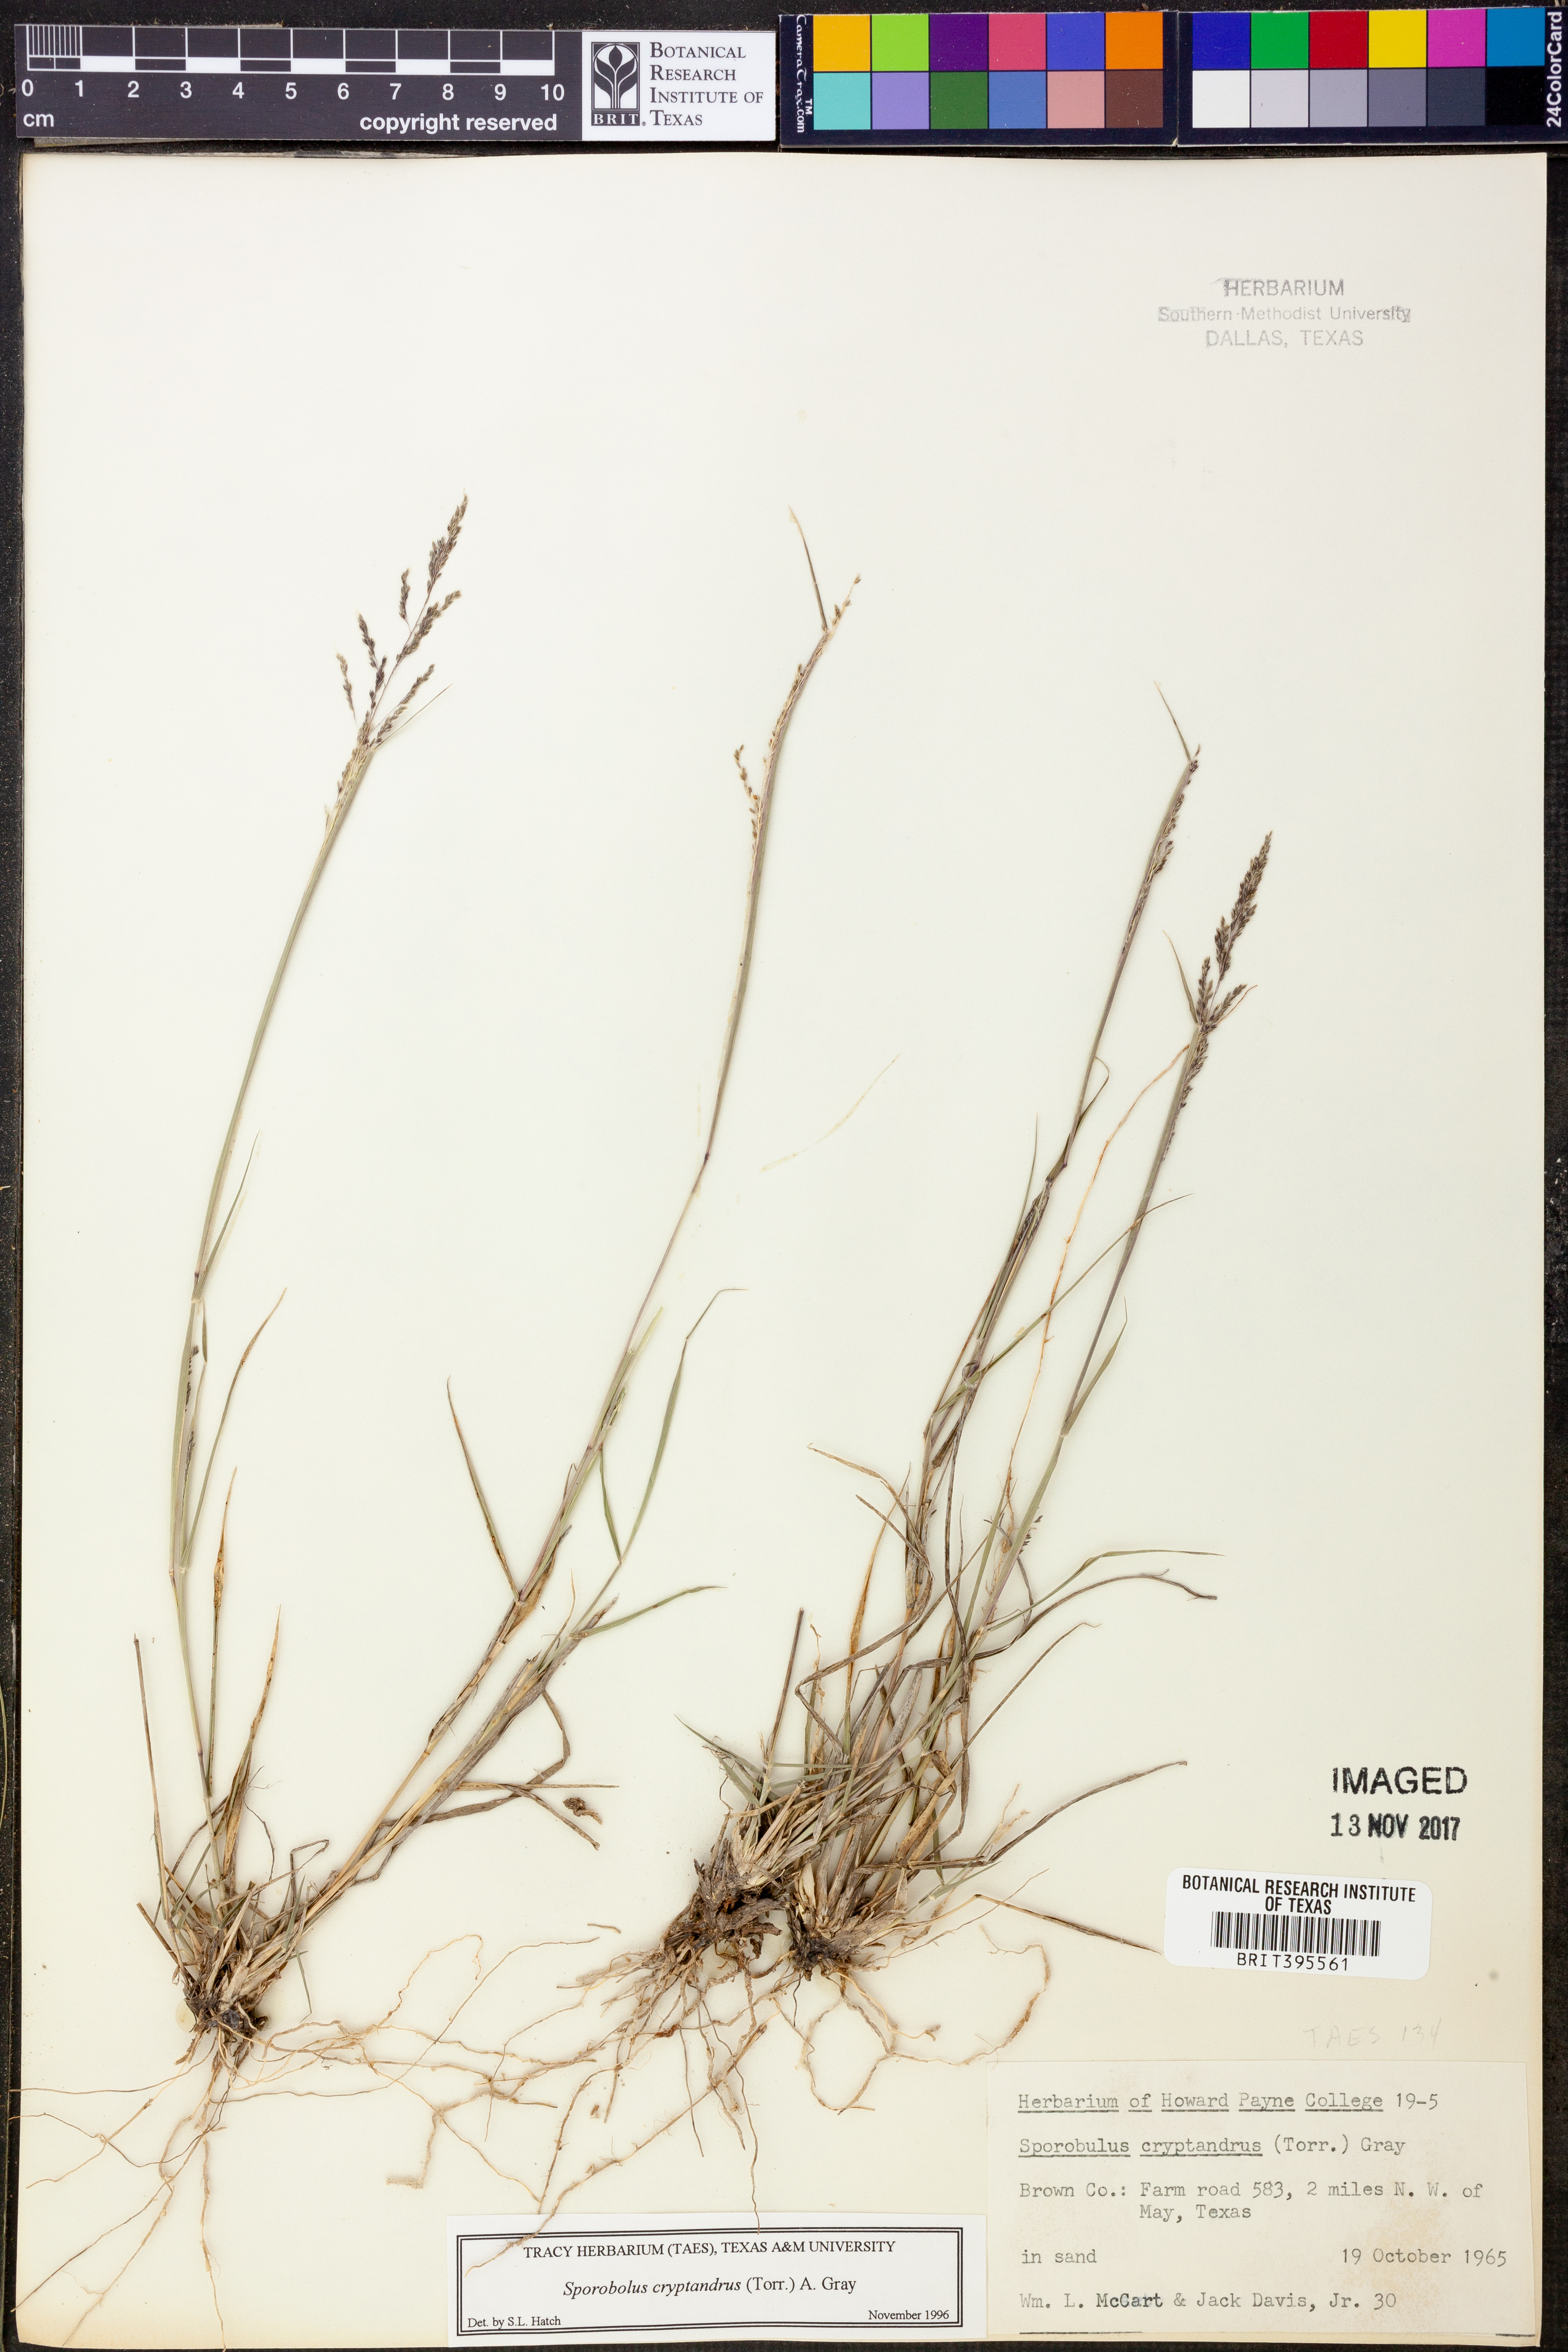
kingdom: Plantae
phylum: Tracheophyta
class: Liliopsida
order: Poales
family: Poaceae
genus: Sporobolus
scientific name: Sporobolus cryptandrus
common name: Sand dropseed
